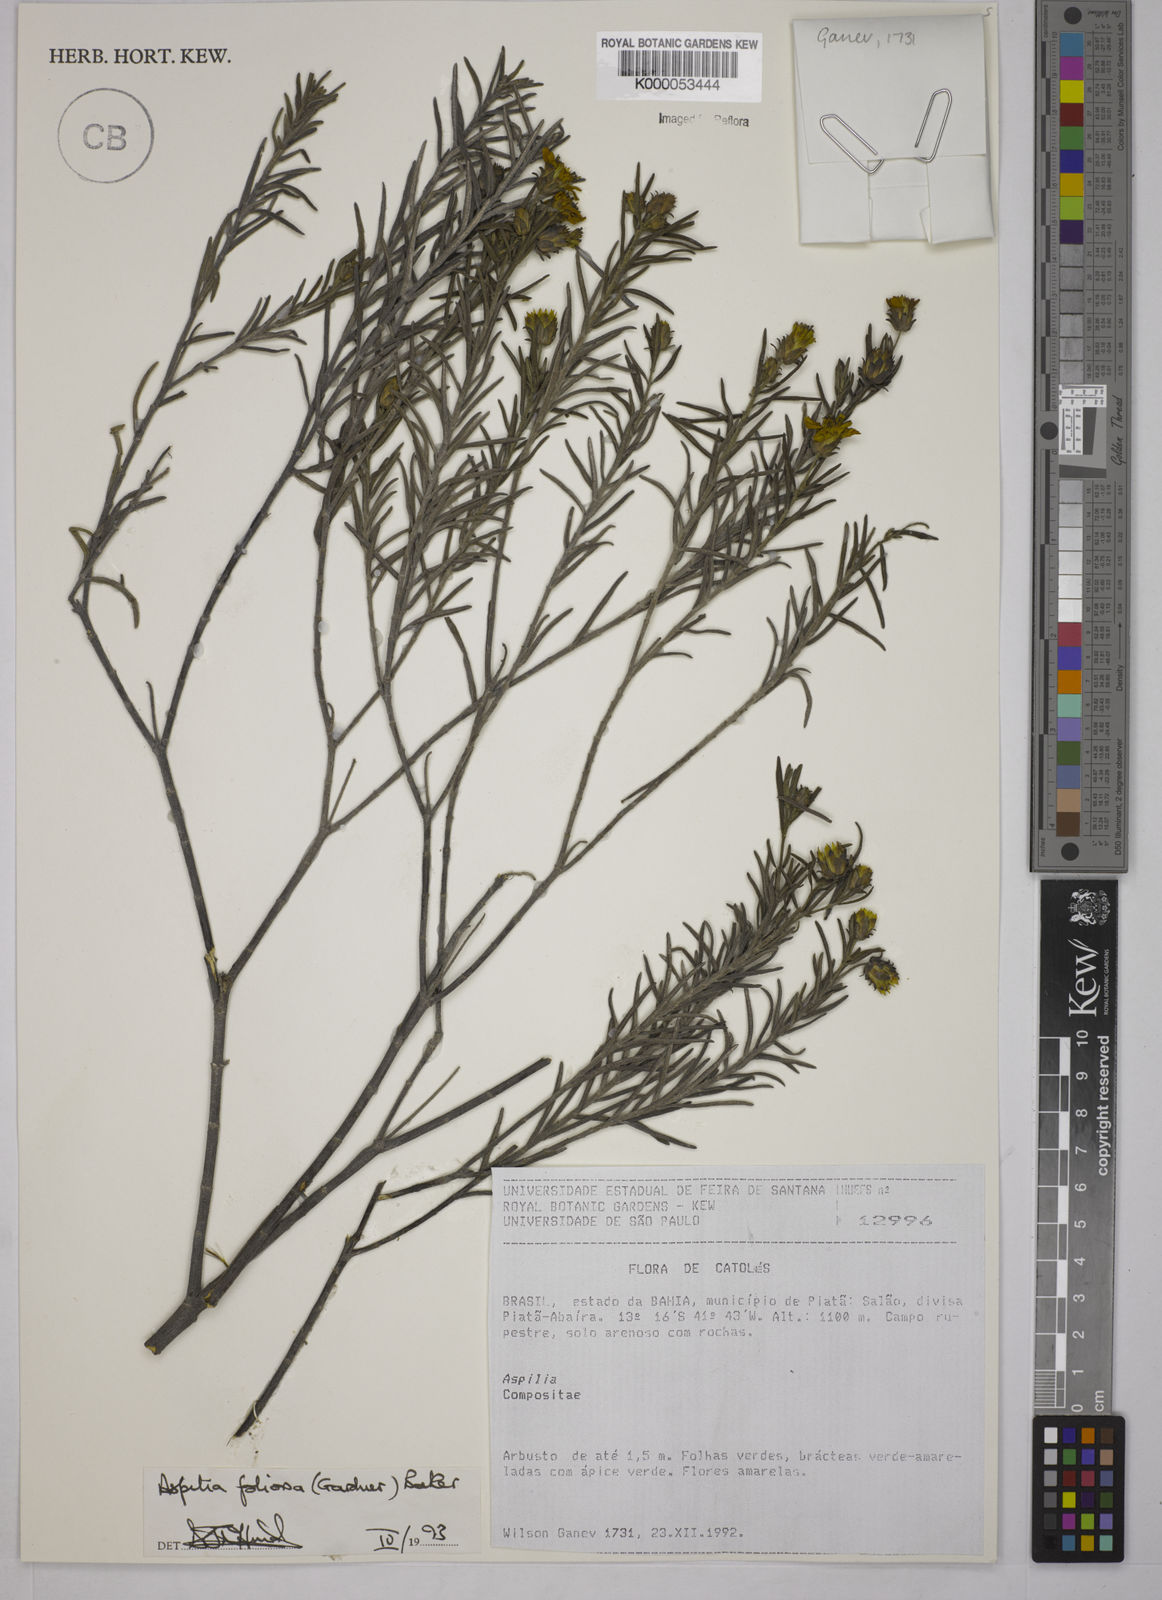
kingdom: Plantae
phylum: Tracheophyta
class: Magnoliopsida
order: Asterales
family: Asteraceae
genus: Aspilia
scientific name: Aspilia
